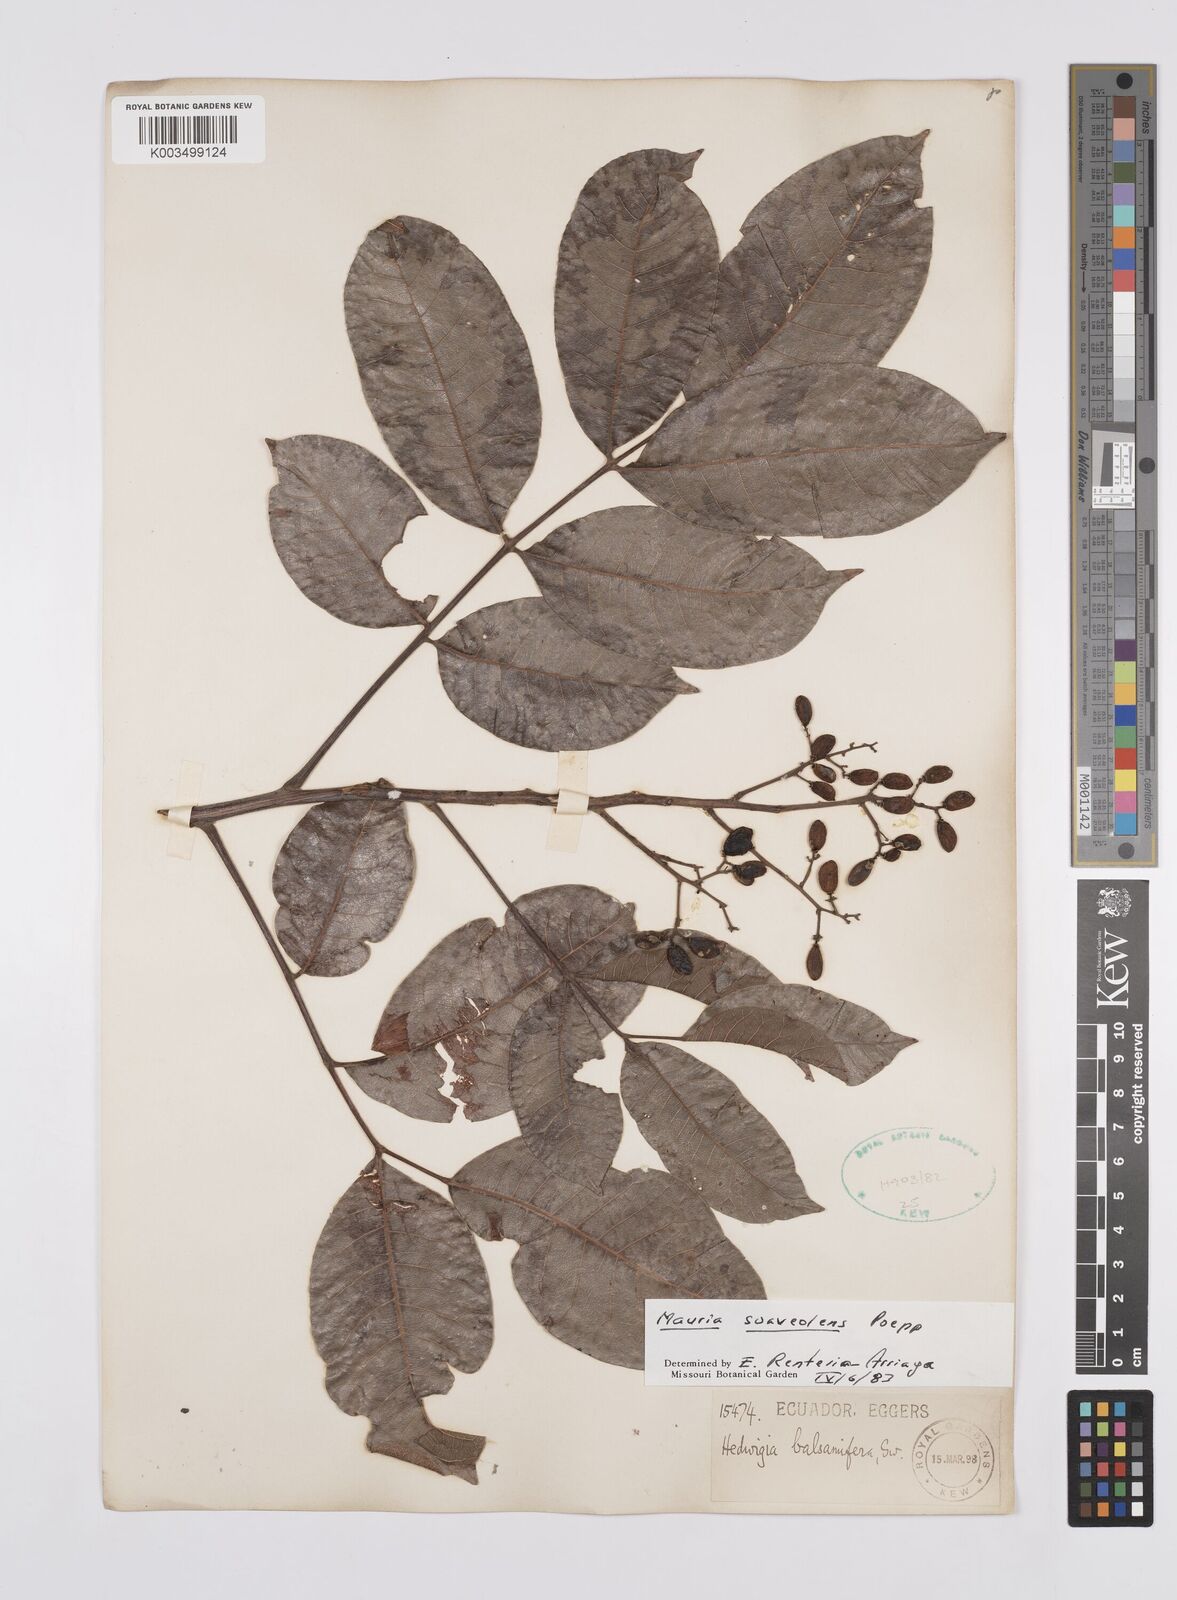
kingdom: Plantae
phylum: Tracheophyta
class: Magnoliopsida
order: Sapindales
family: Anacardiaceae
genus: Mauria
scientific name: Mauria heterophylla
